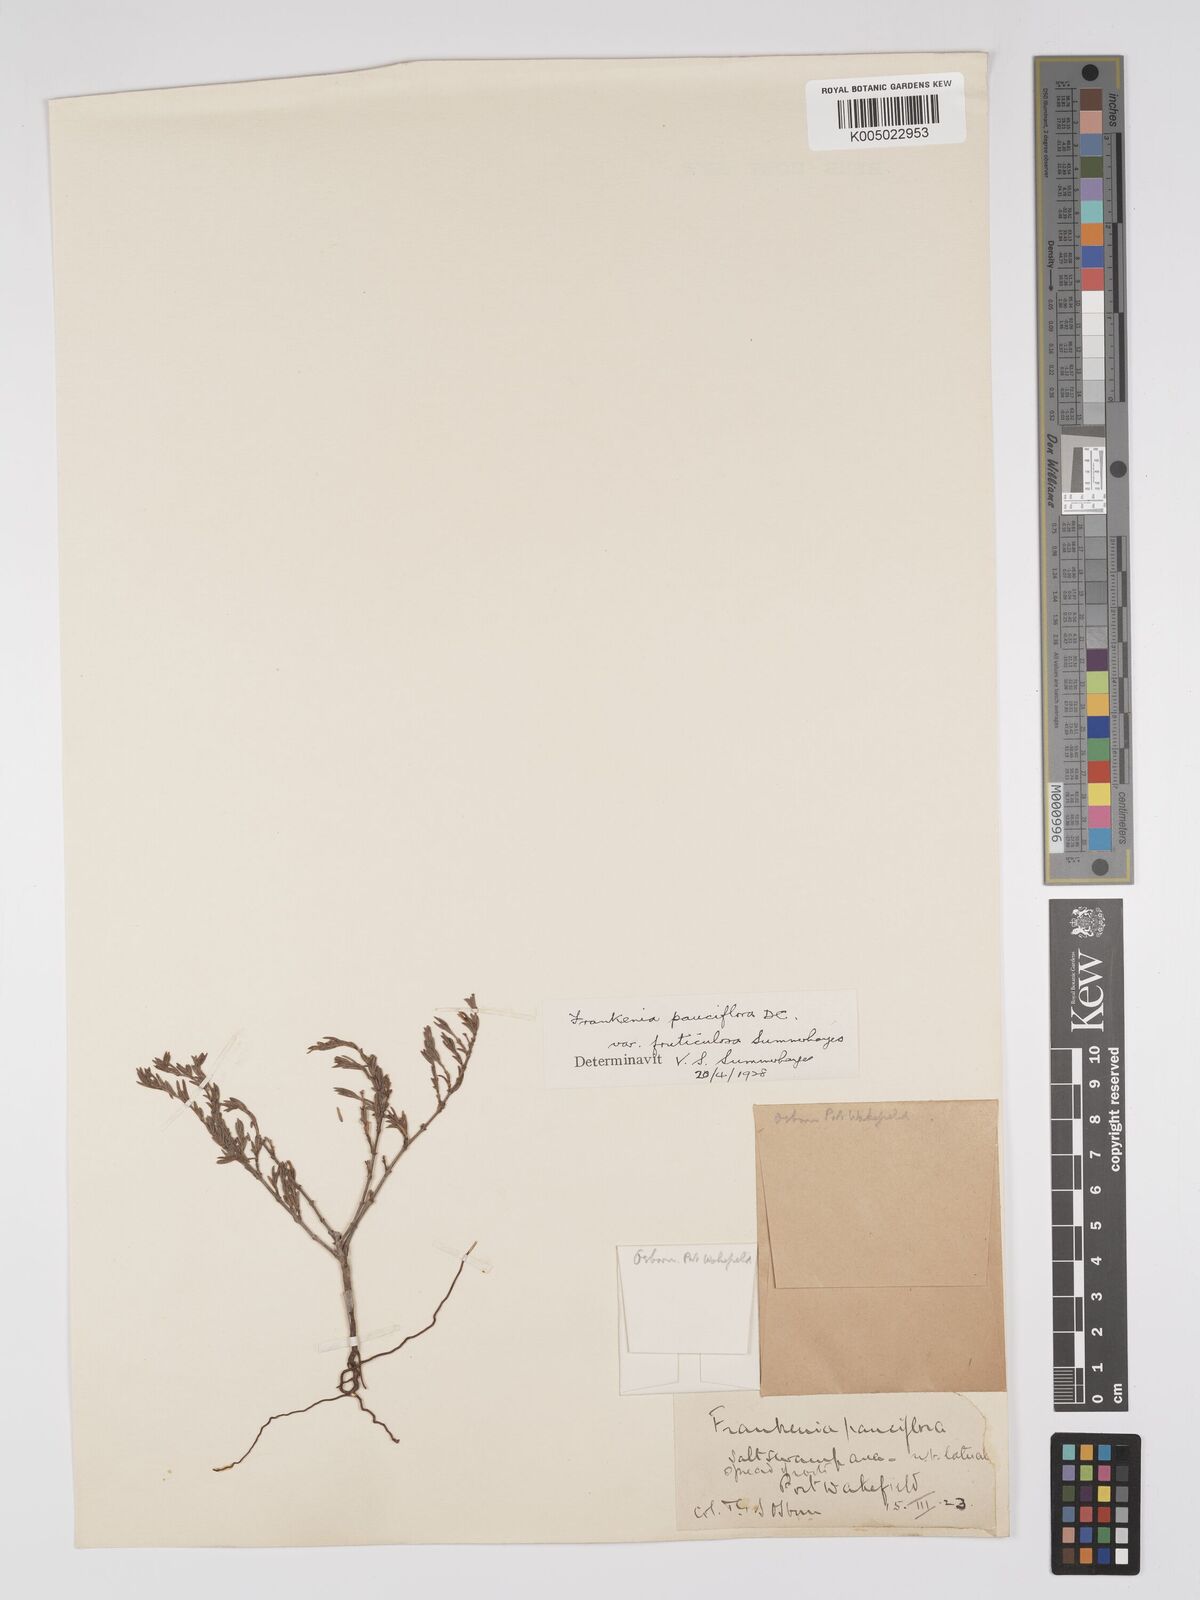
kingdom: Plantae
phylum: Tracheophyta
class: Magnoliopsida
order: Caryophyllales
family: Frankeniaceae
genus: Frankenia
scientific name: Frankenia pauciflora
